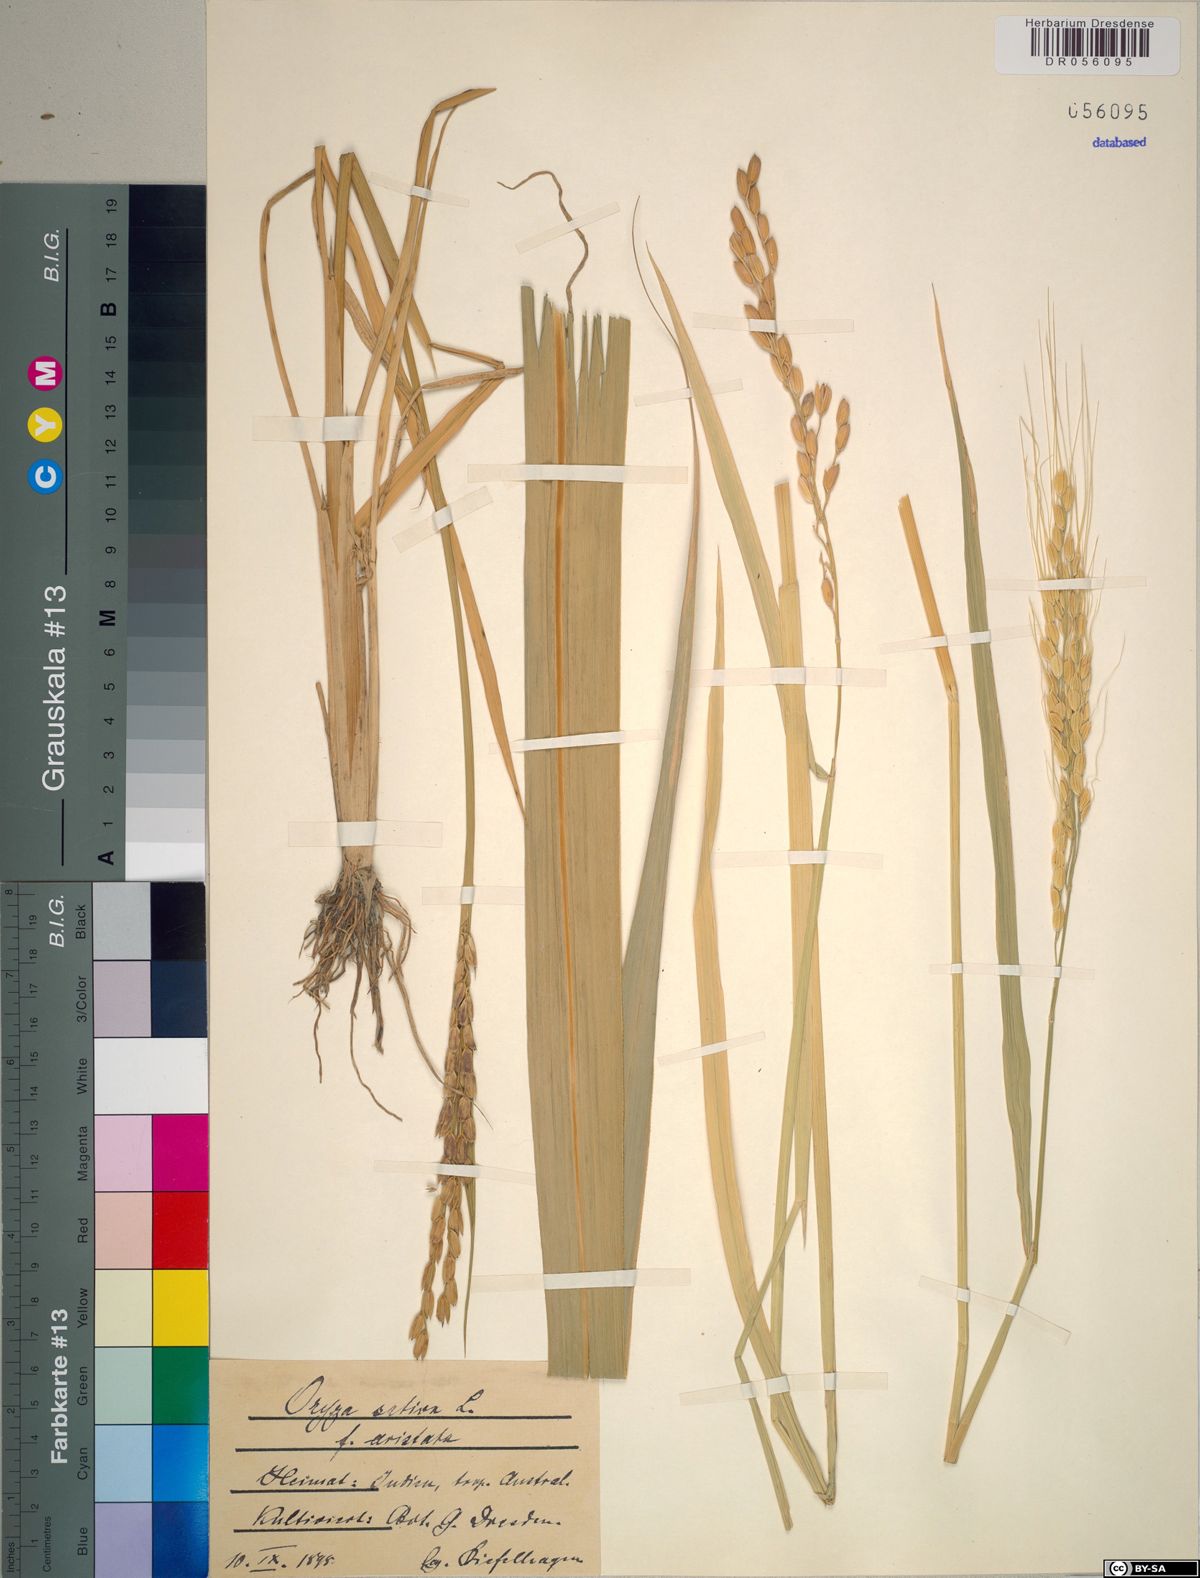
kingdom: Plantae
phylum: Tracheophyta
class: Liliopsida
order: Poales
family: Poaceae
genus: Oryza
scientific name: Oryza sativa
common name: Rice
